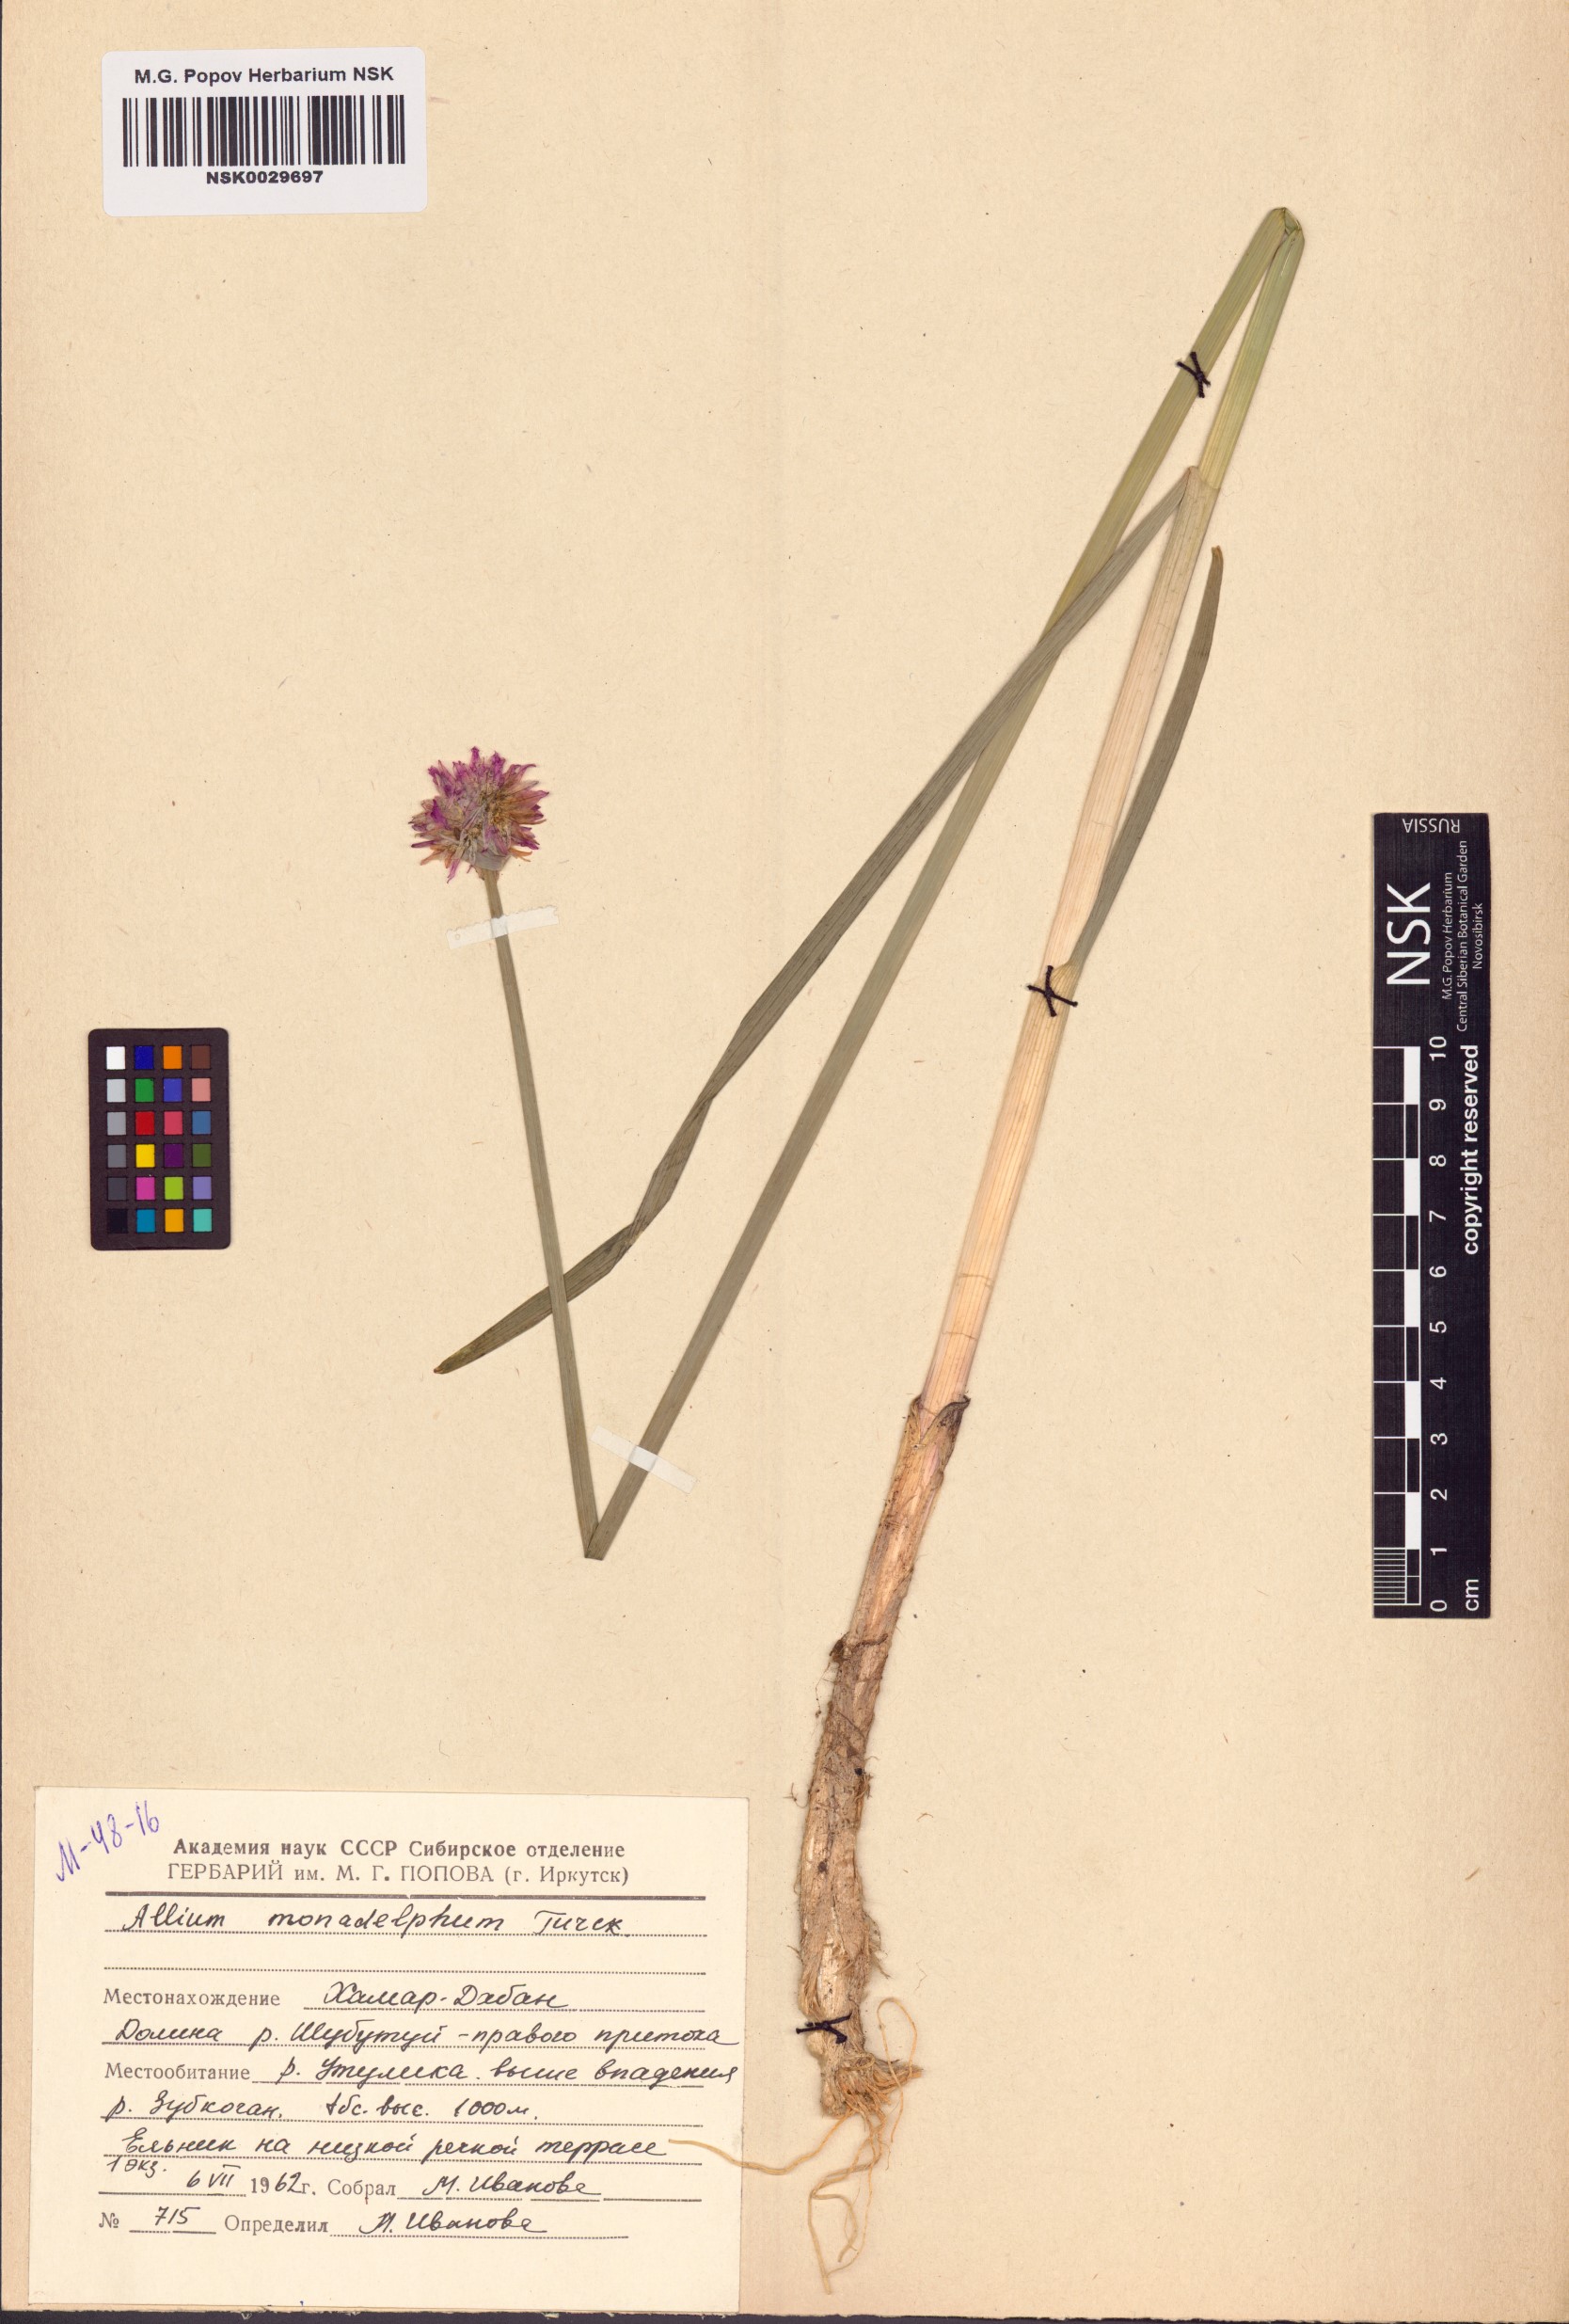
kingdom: Plantae
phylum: Tracheophyta
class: Liliopsida
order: Asparagales
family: Amaryllidaceae
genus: Allium
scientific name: Allium atrosanguineum
